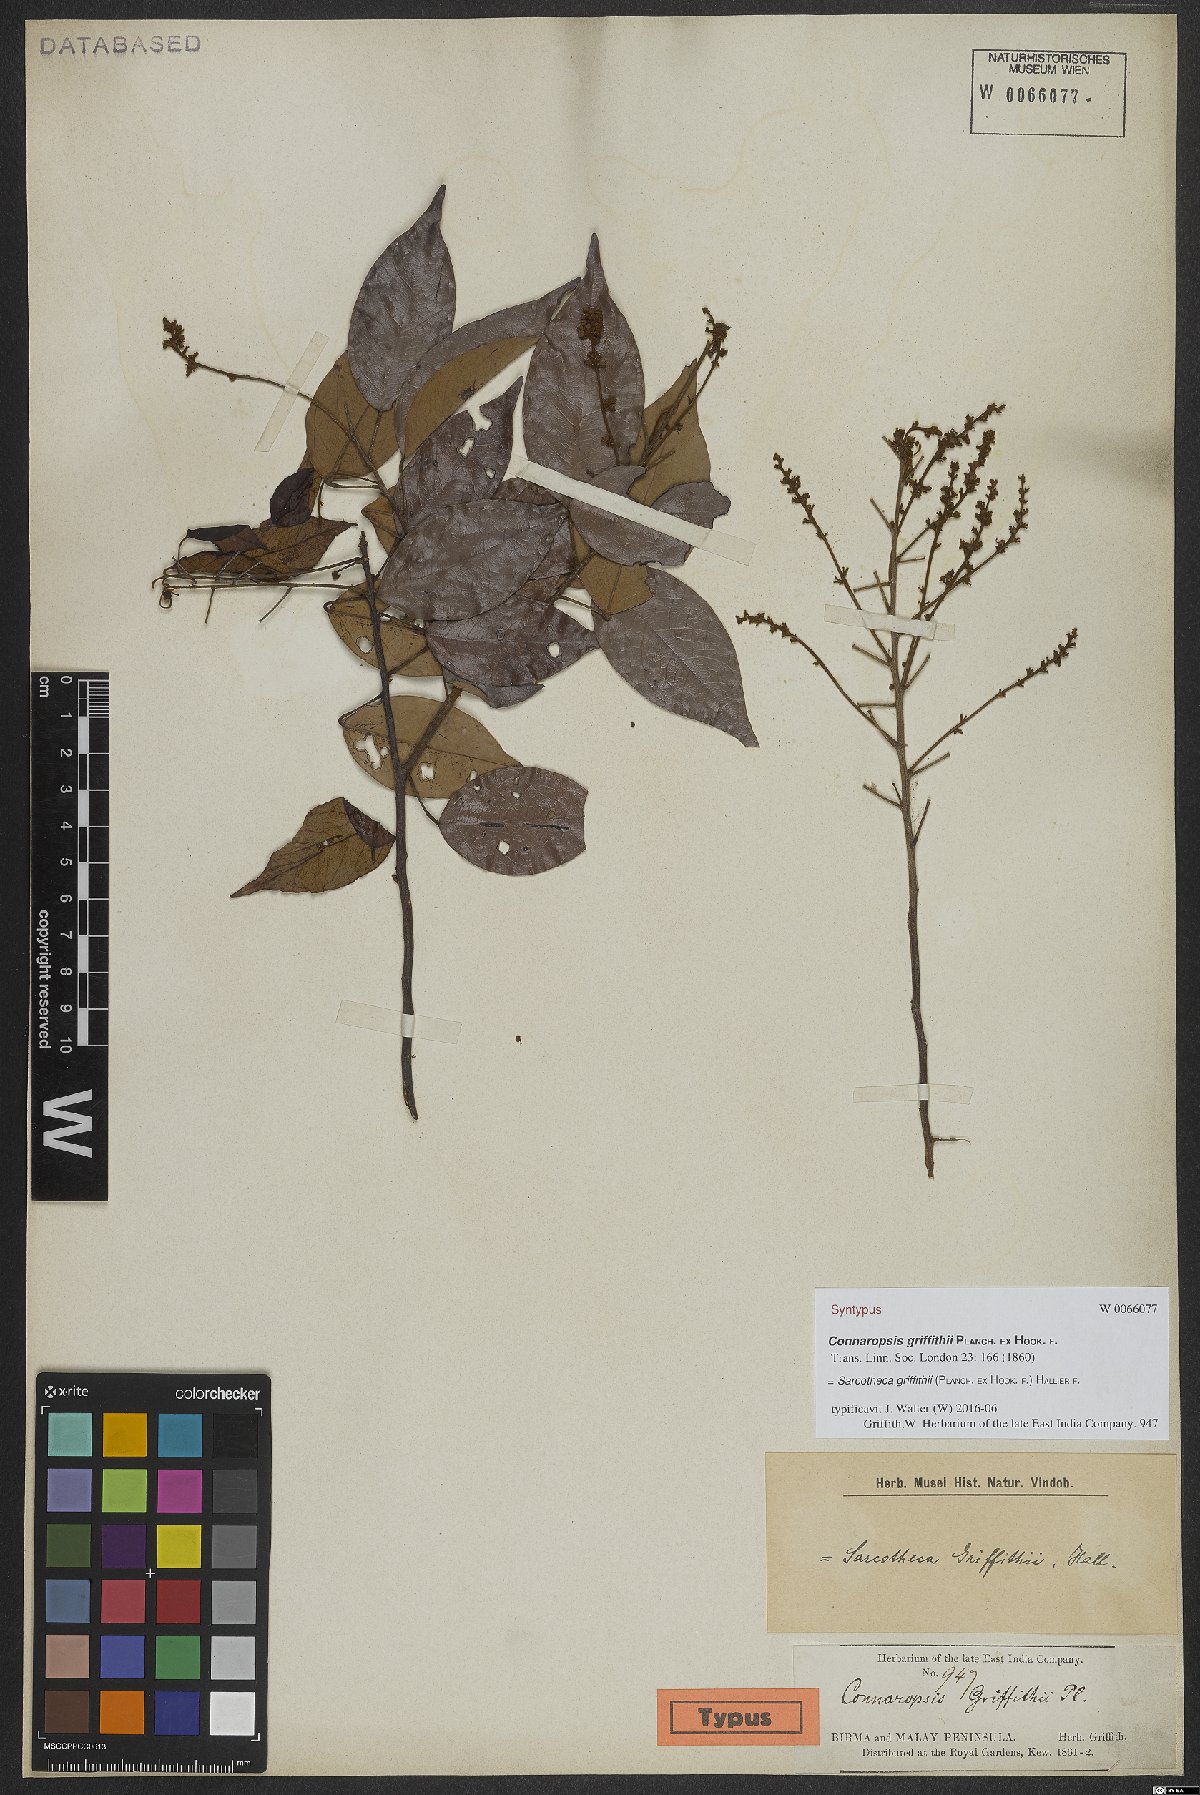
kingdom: Plantae
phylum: Tracheophyta
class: Magnoliopsida
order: Oxalidales
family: Oxalidaceae
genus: Sarcotheca
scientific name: Sarcotheca griffithii
